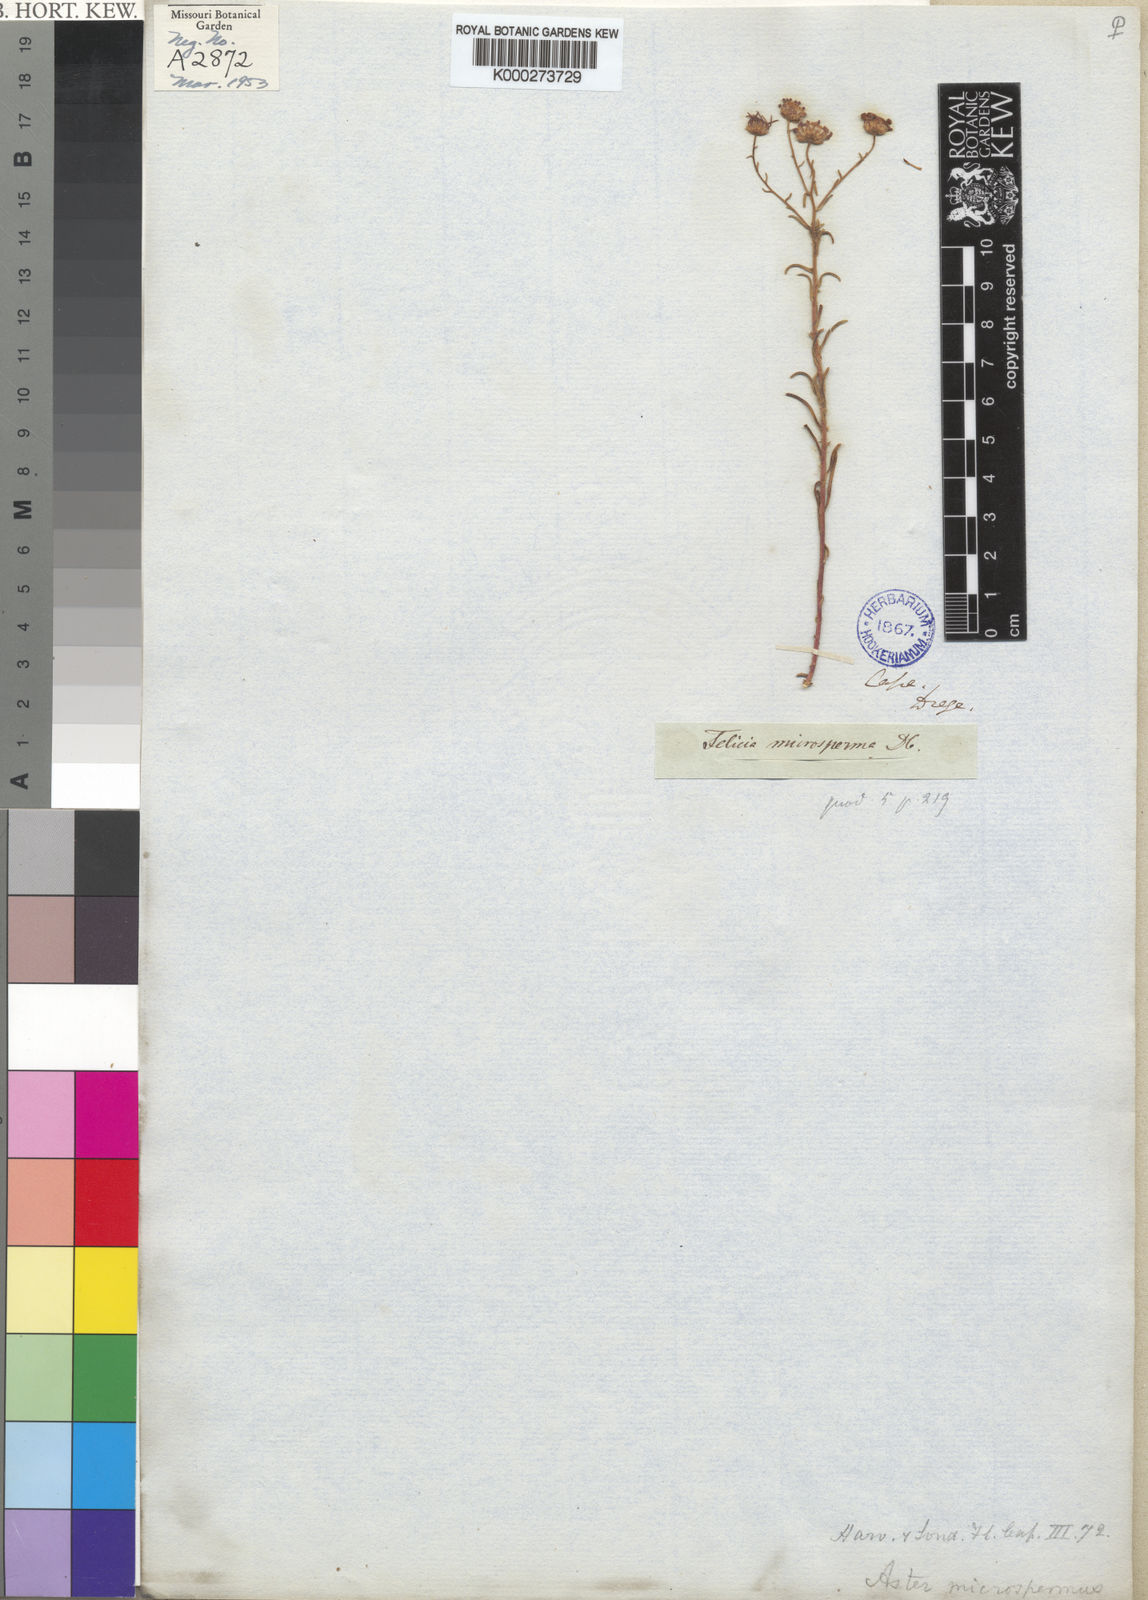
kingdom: Plantae
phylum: Tracheophyta
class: Magnoliopsida
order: Asterales
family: Asteraceae
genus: Felicia
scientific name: Felicia microsperma
